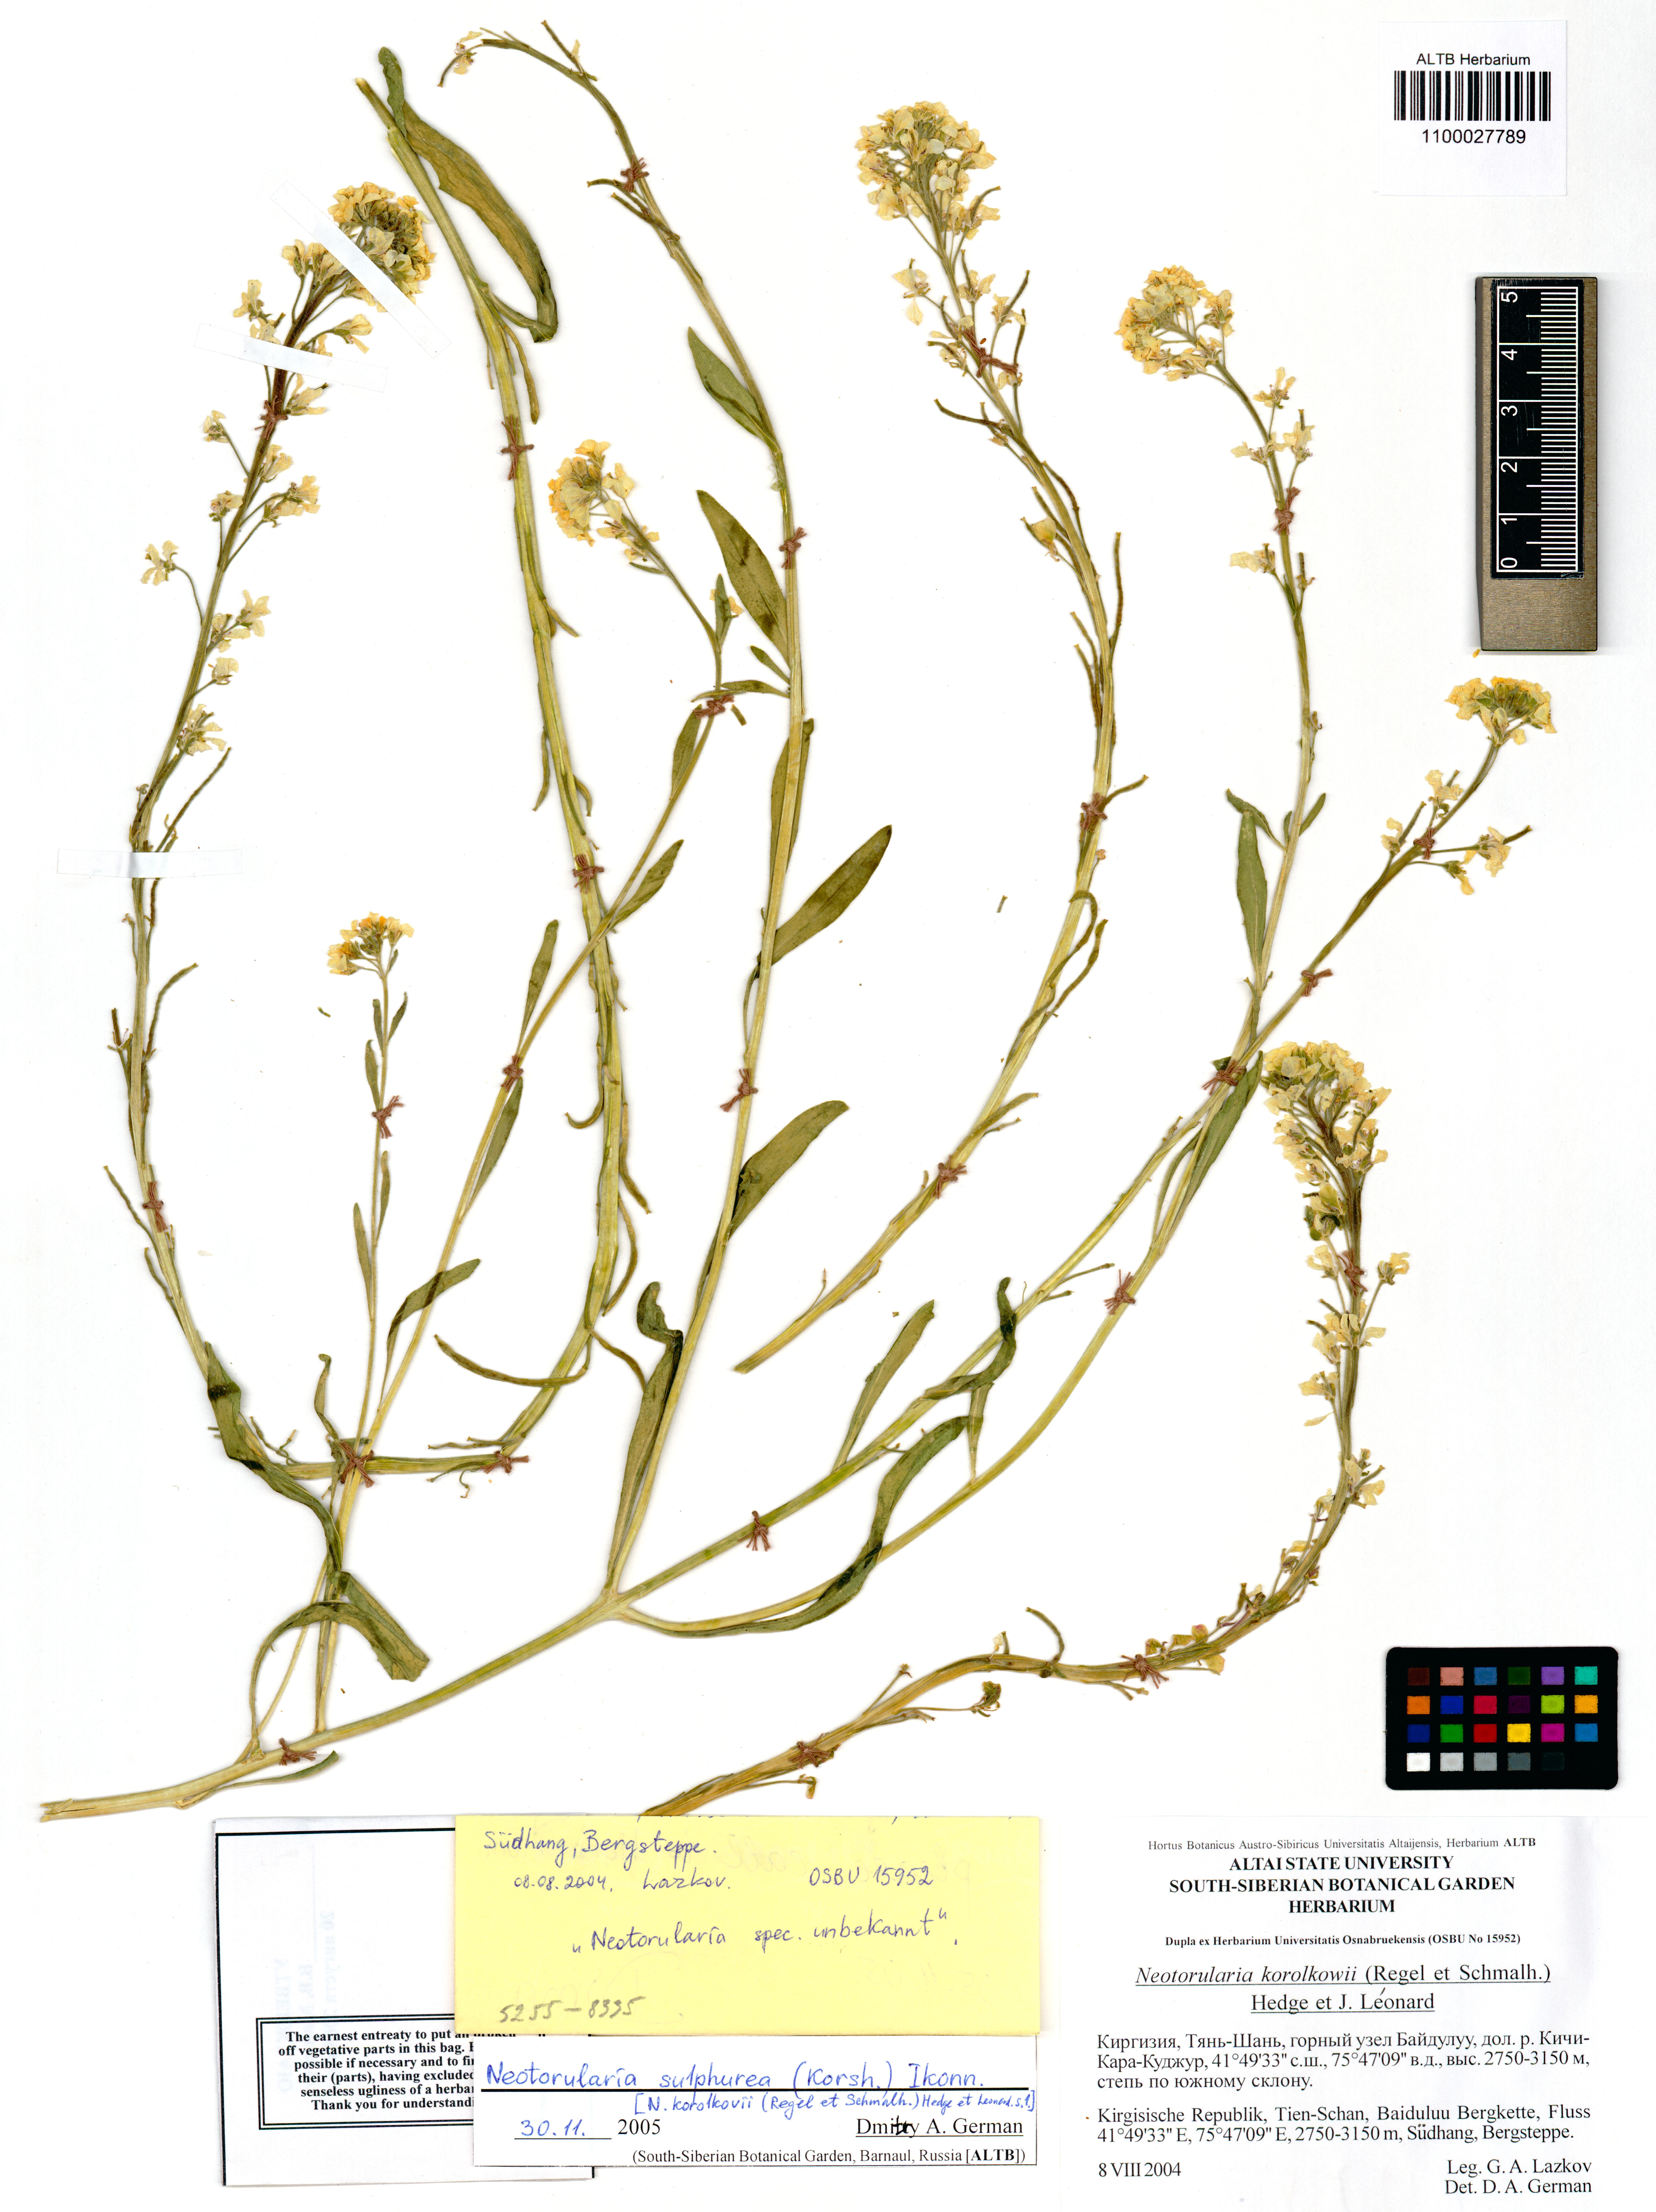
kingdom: Plantae
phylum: Tracheophyta
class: Magnoliopsida
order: Brassicales
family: Brassicaceae
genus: Rudolf-kamelinia
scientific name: Rudolf-kamelinia korolkowii
